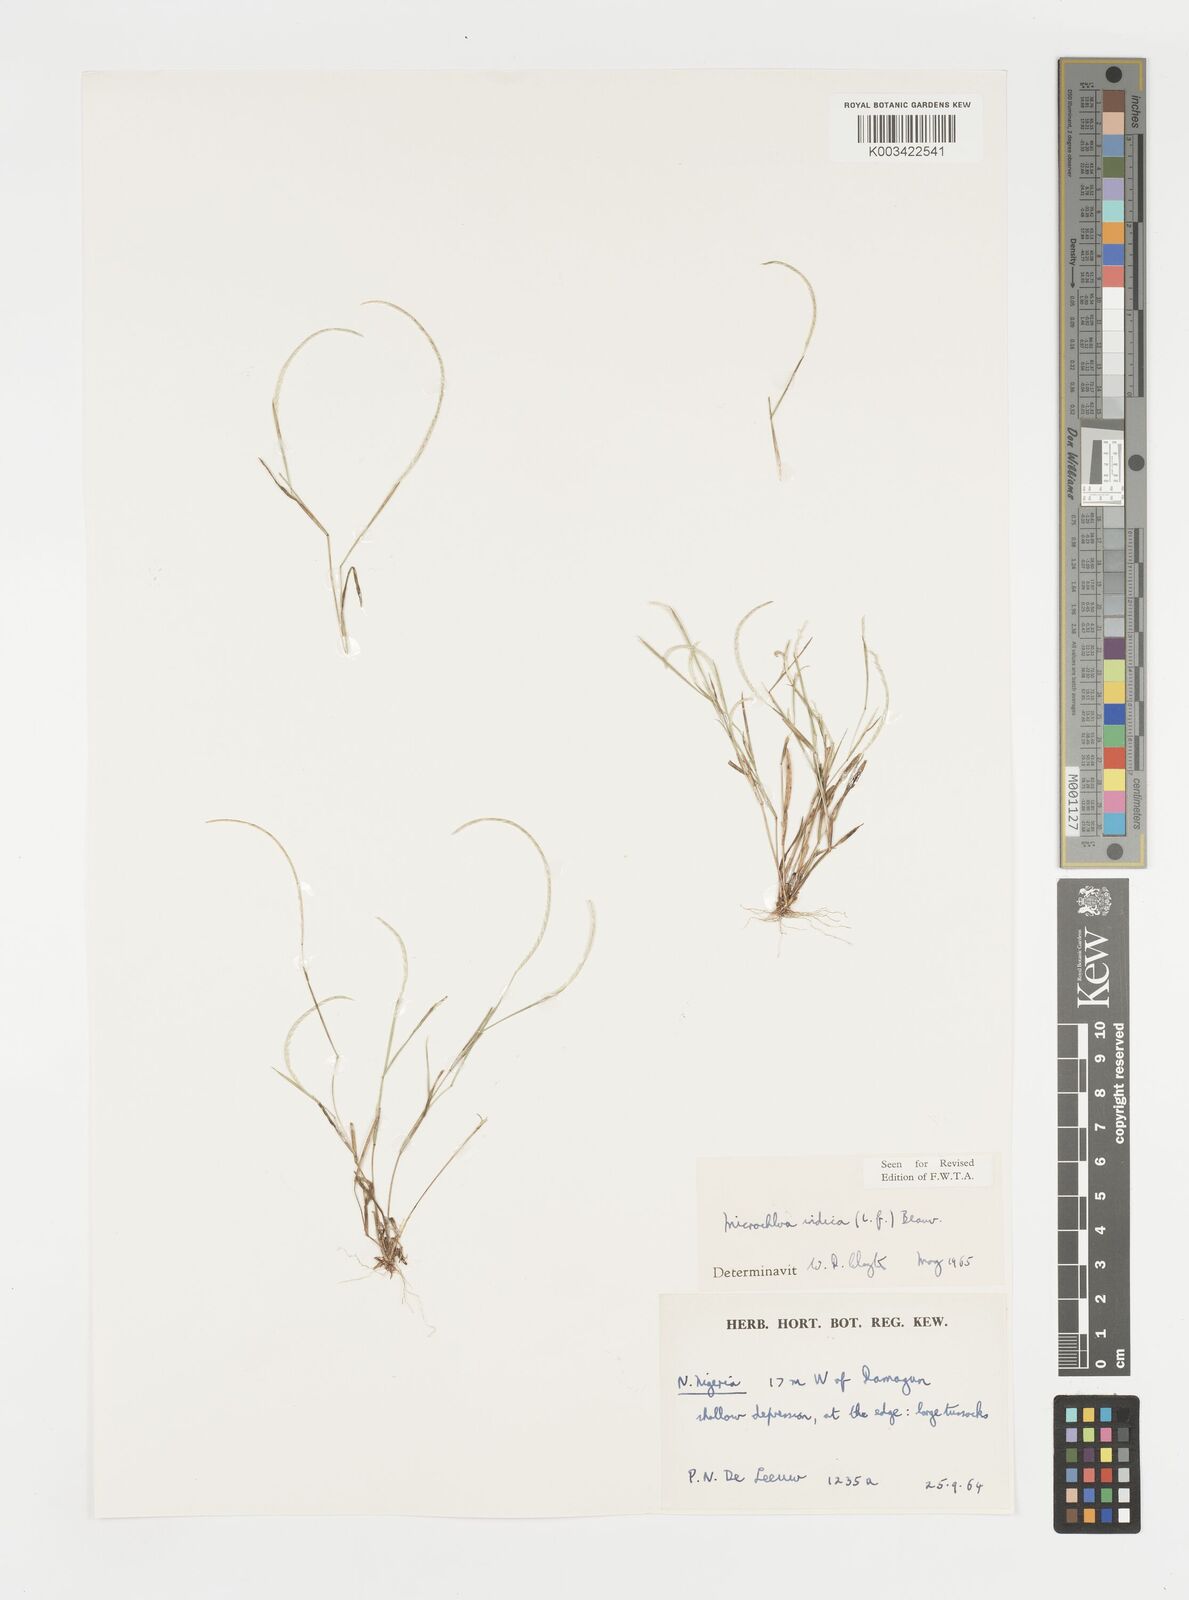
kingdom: Plantae
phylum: Tracheophyta
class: Liliopsida
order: Poales
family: Poaceae
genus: Microchloa
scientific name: Microchloa indica
